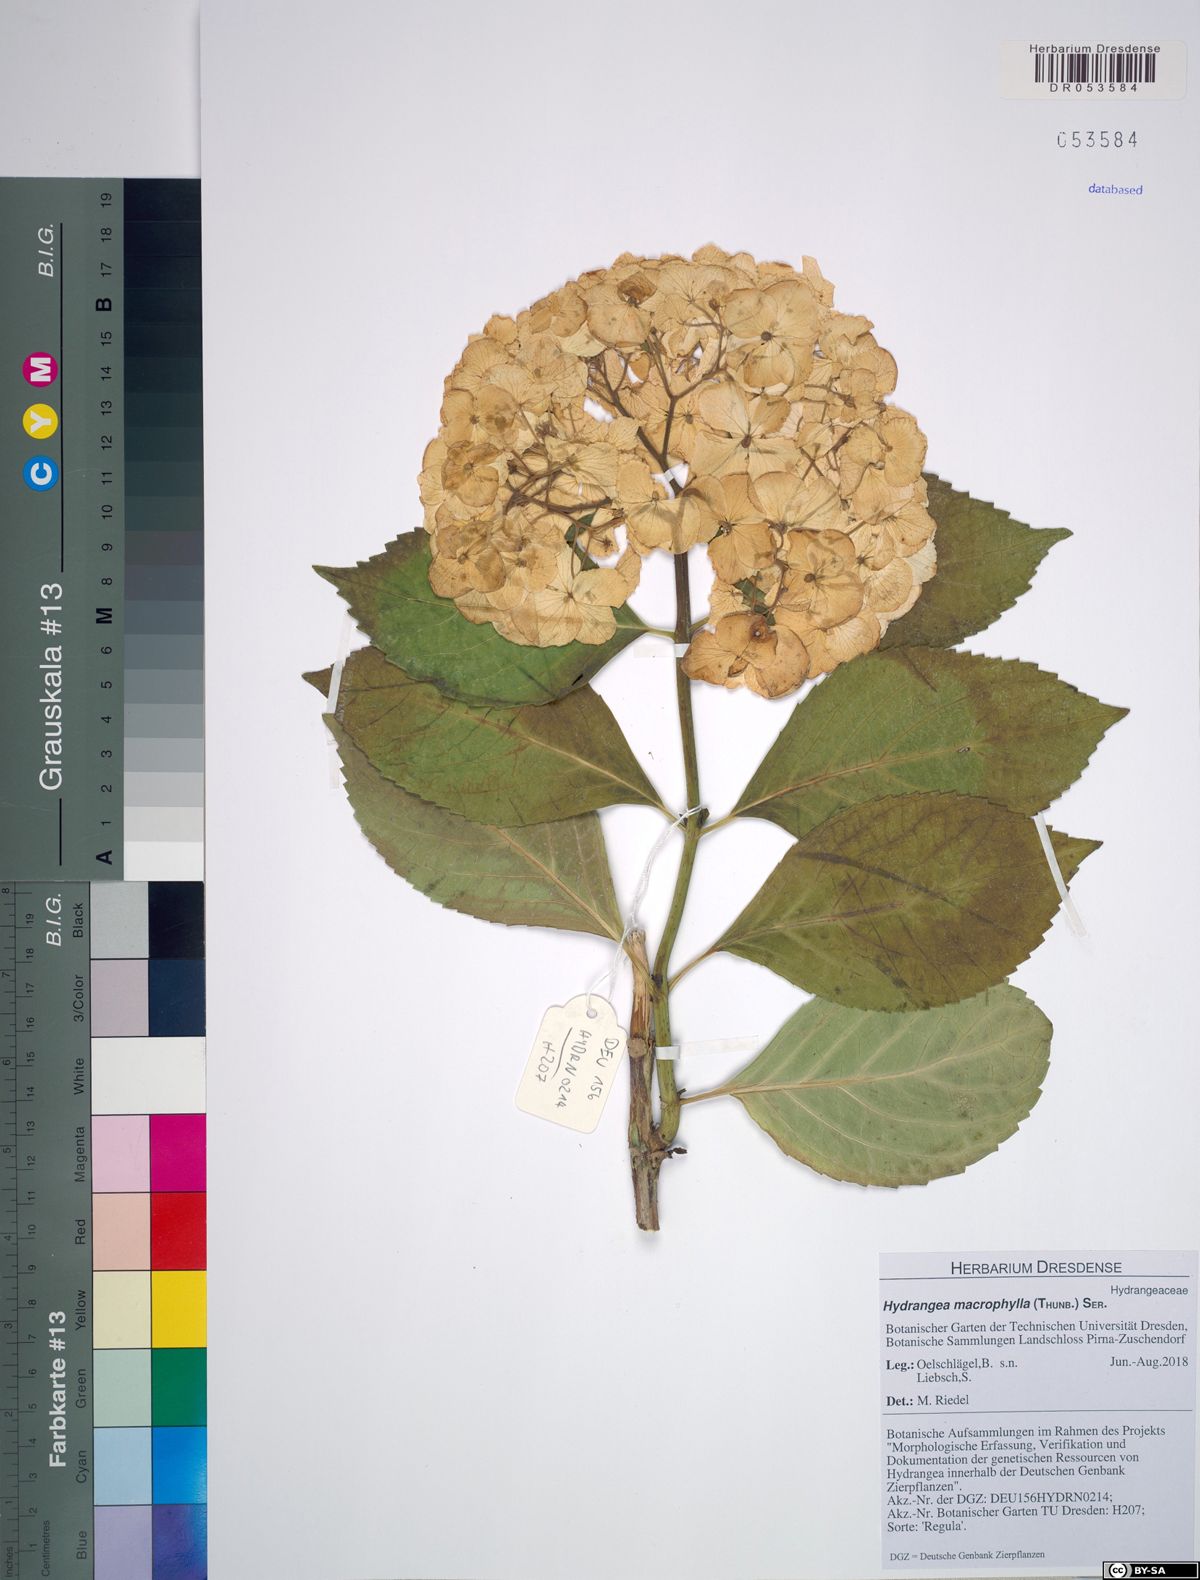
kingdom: Plantae
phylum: Tracheophyta
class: Magnoliopsida
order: Cornales
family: Hydrangeaceae
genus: Hydrangea
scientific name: Hydrangea macrophylla
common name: Hydrangea
